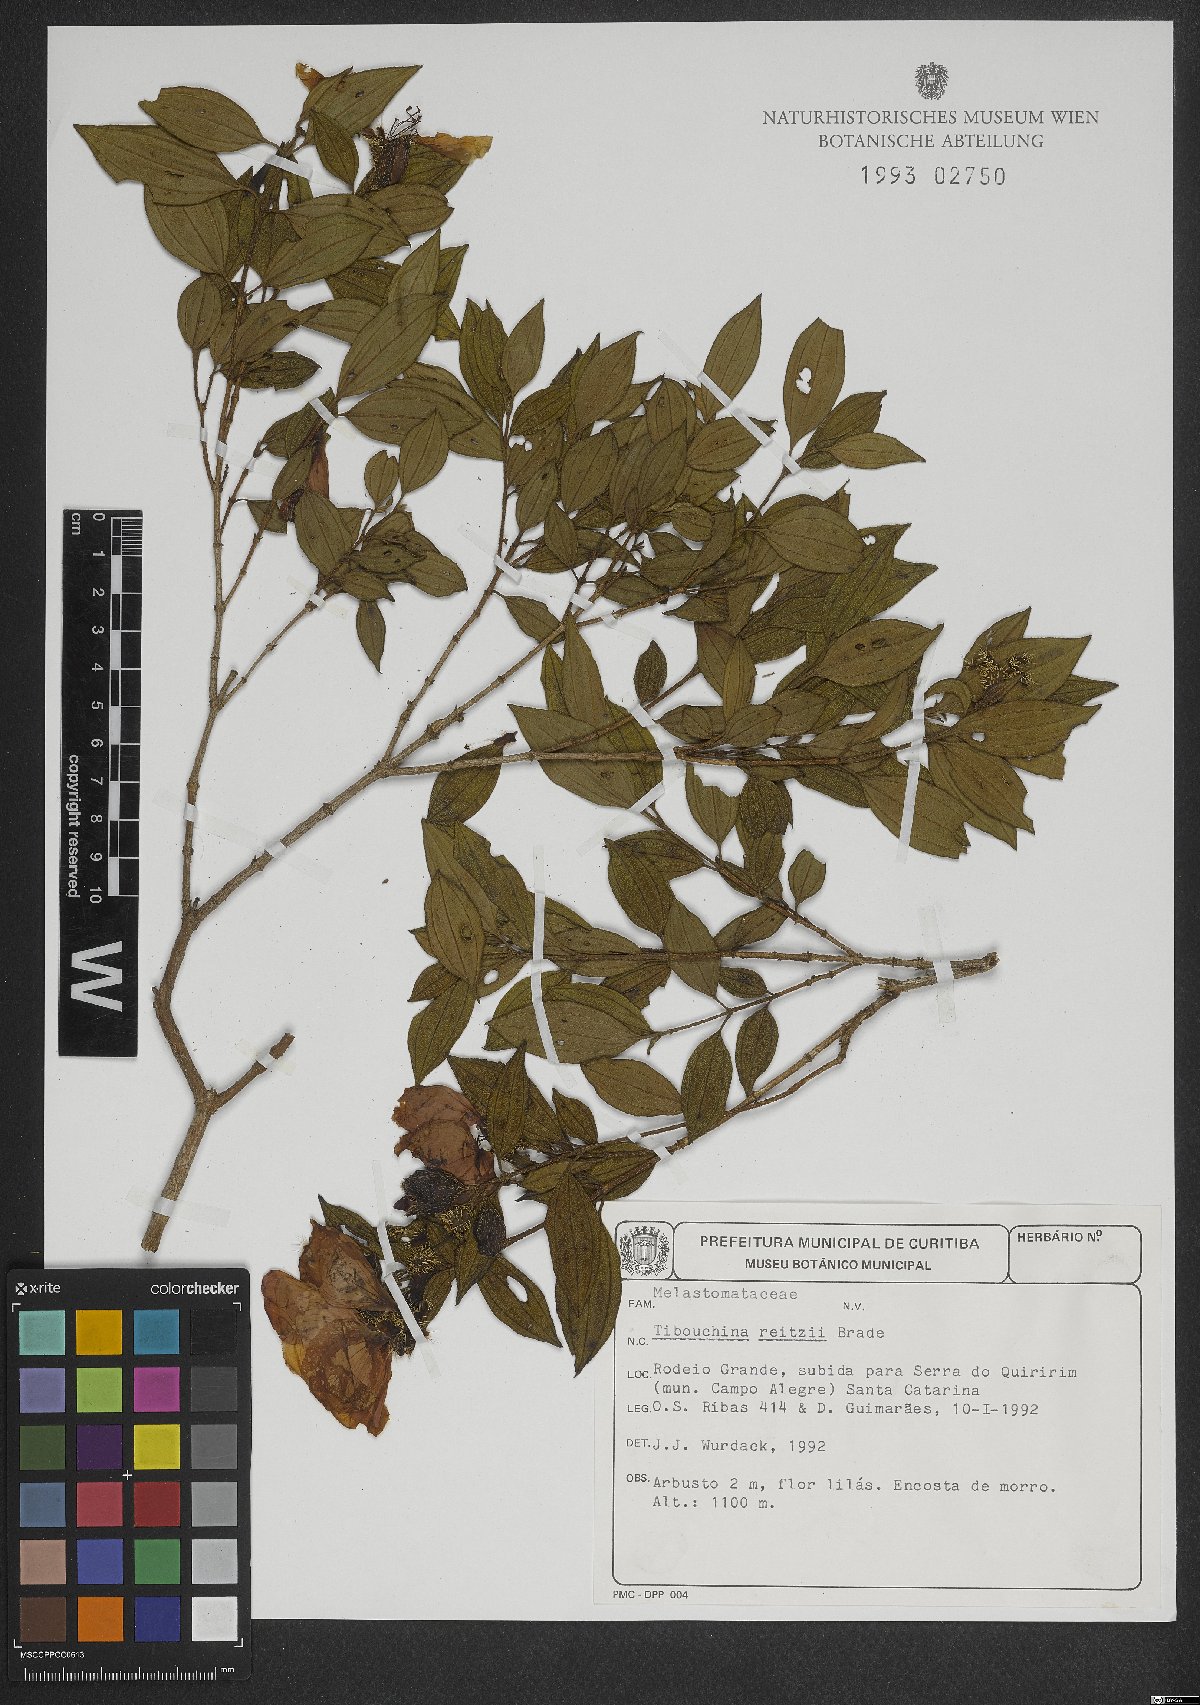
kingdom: Plantae
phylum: Tracheophyta
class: Magnoliopsida
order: Myrtales
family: Melastomataceae
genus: Pleroma
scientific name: Pleroma reitzii
